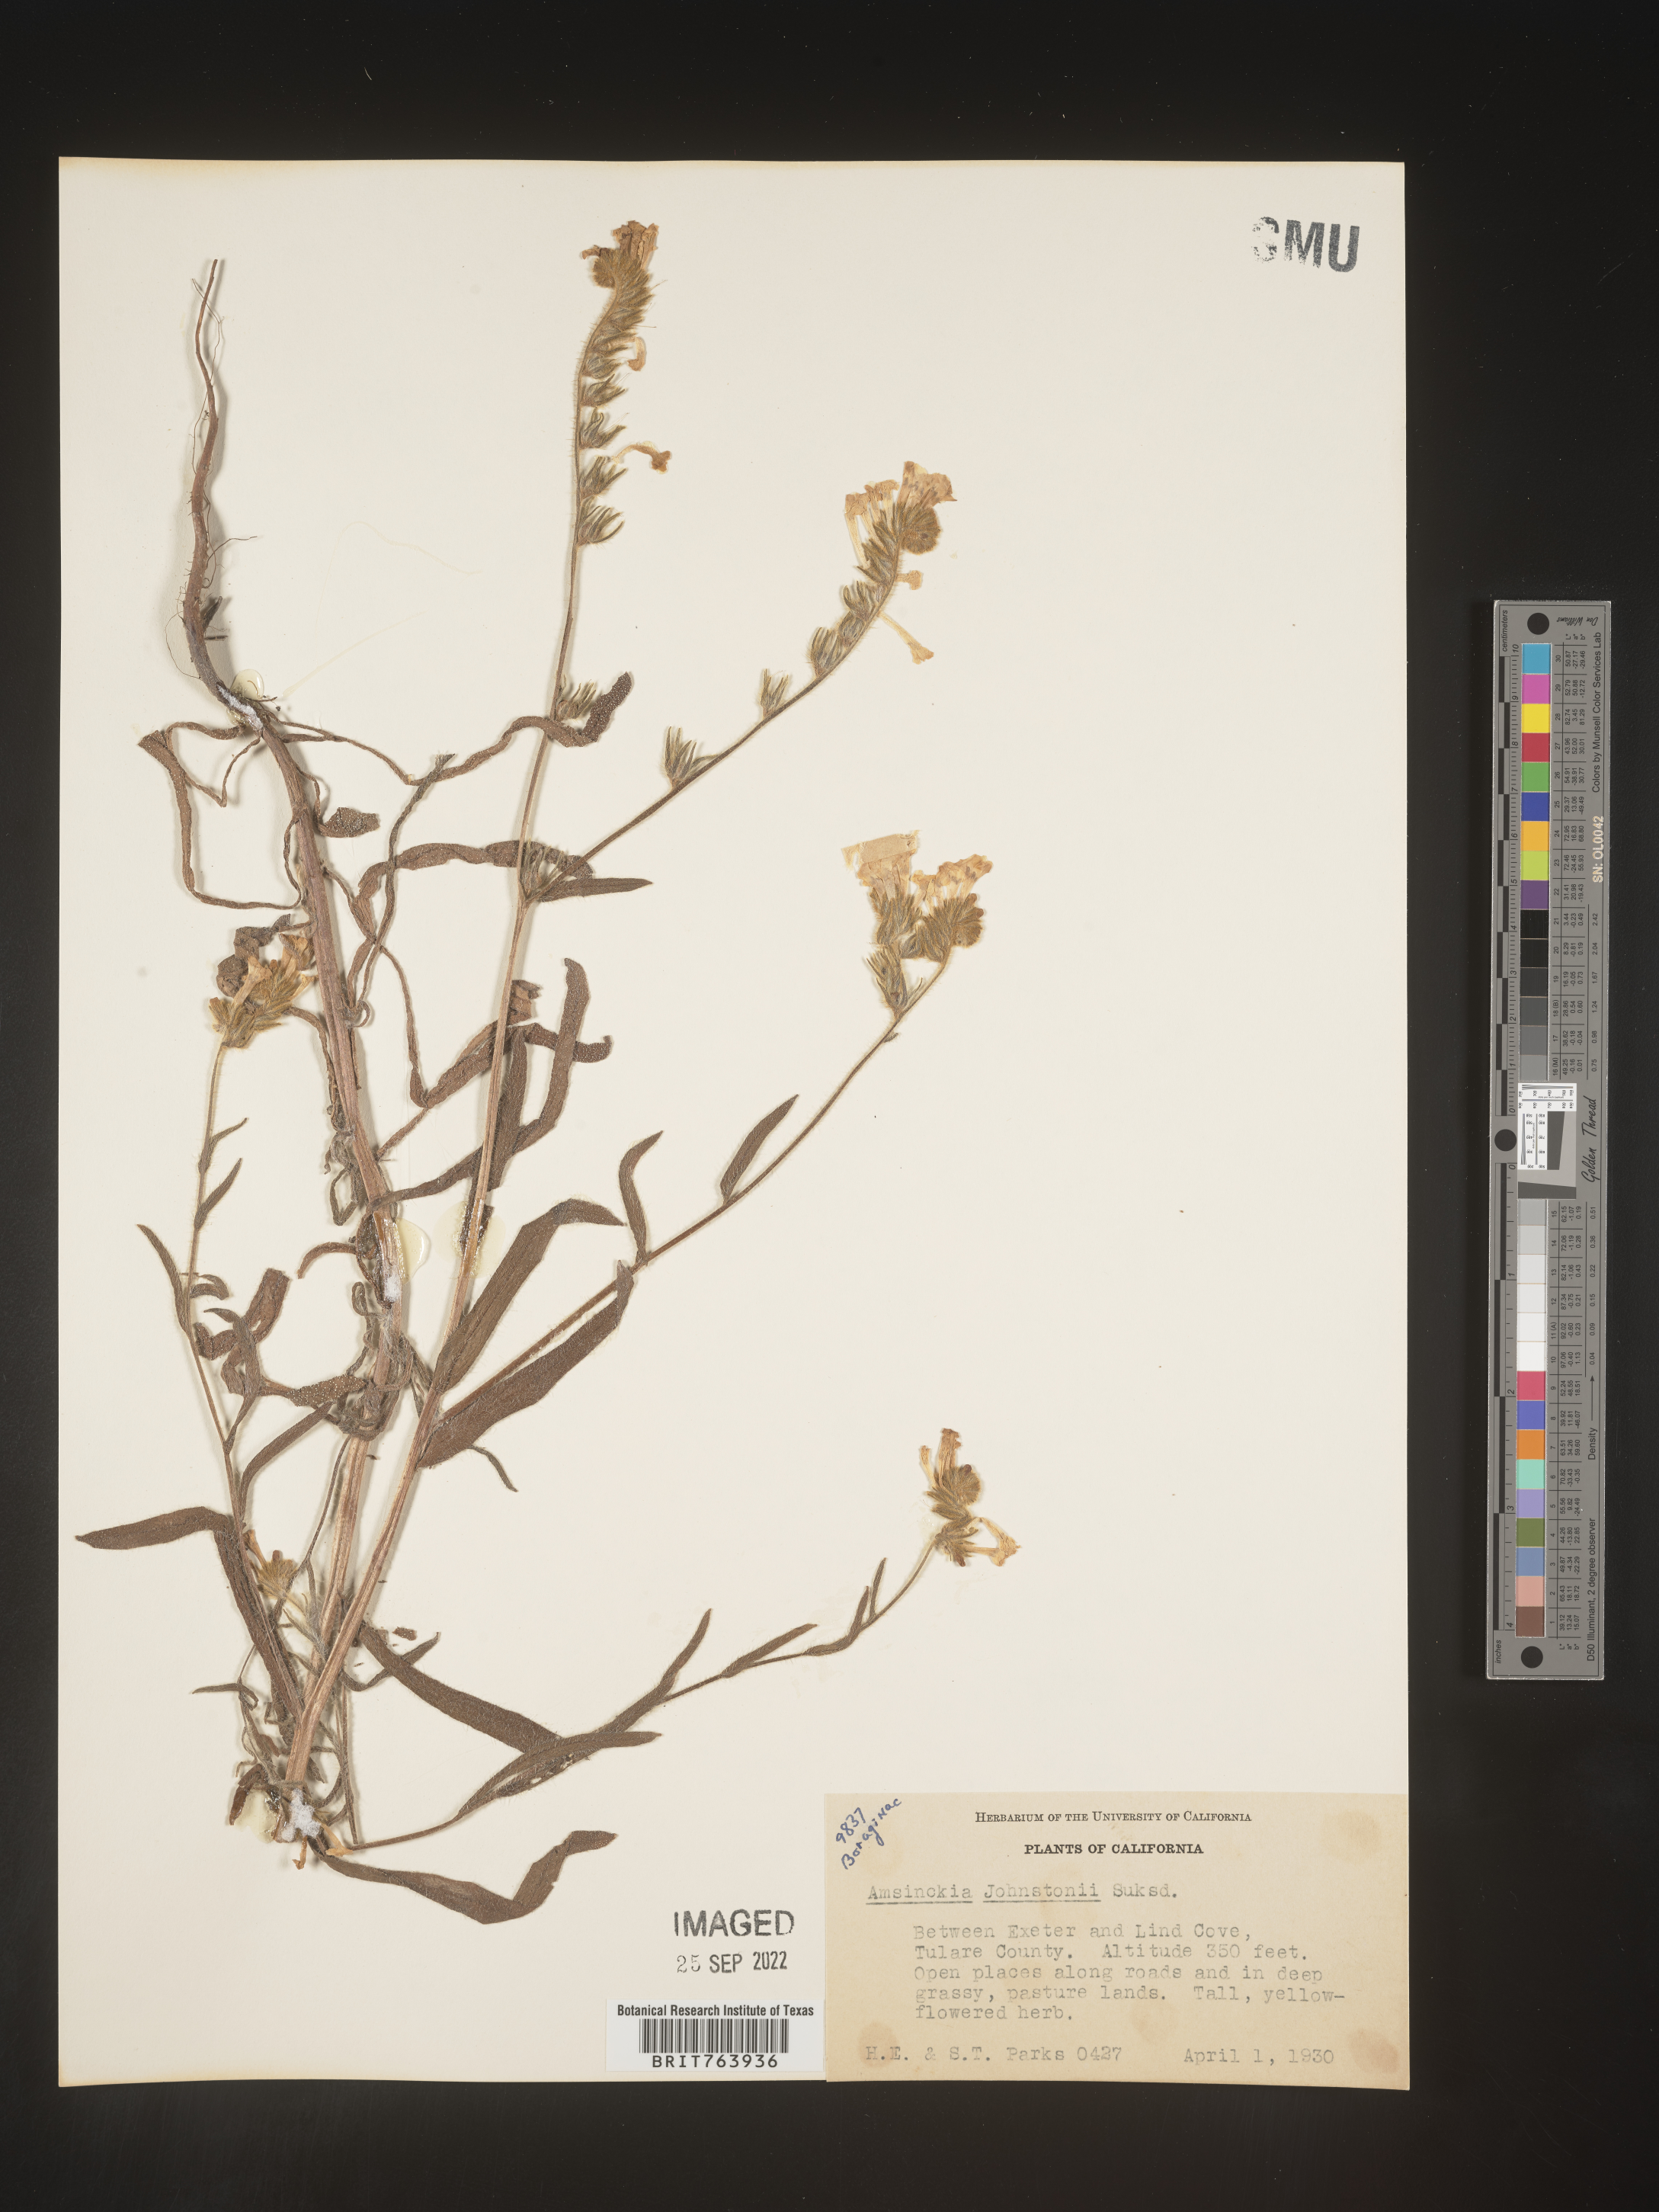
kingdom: Plantae
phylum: Tracheophyta
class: Magnoliopsida
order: Boraginales
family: Boraginaceae
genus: Amsinckia
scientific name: Amsinckia
